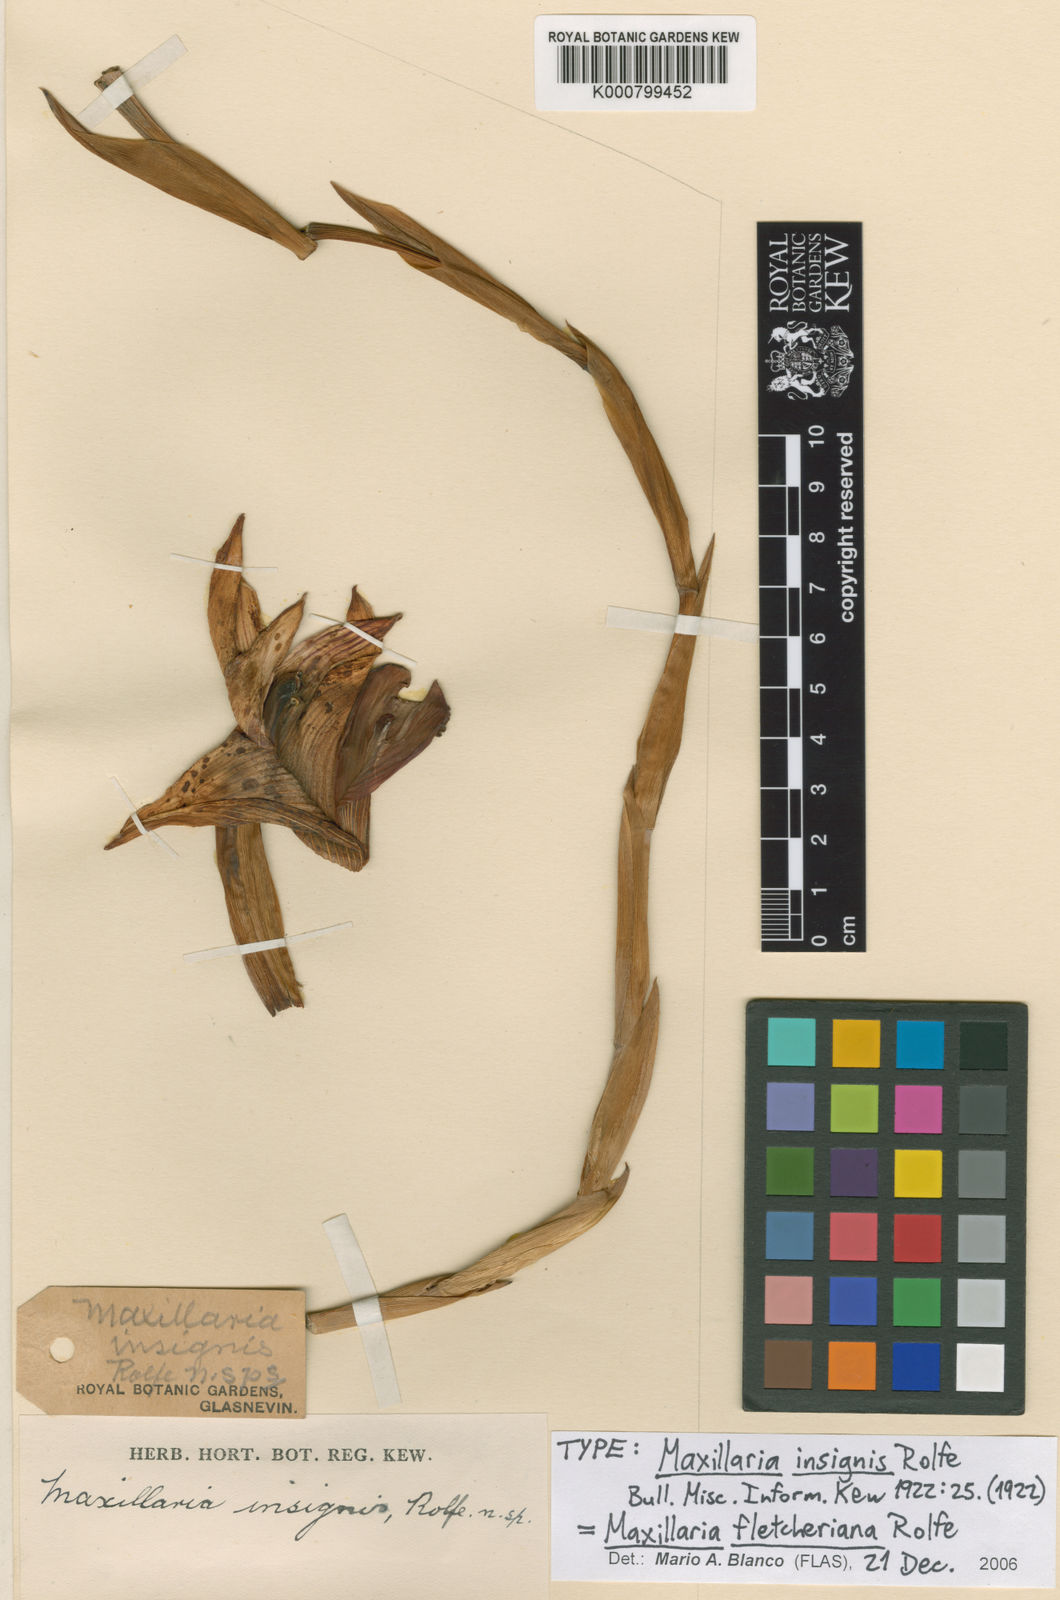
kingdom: Plantae
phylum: Tracheophyta
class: Liliopsida
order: Asparagales
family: Orchidaceae
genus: Maxillaria
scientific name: Maxillaria fletcheriana
